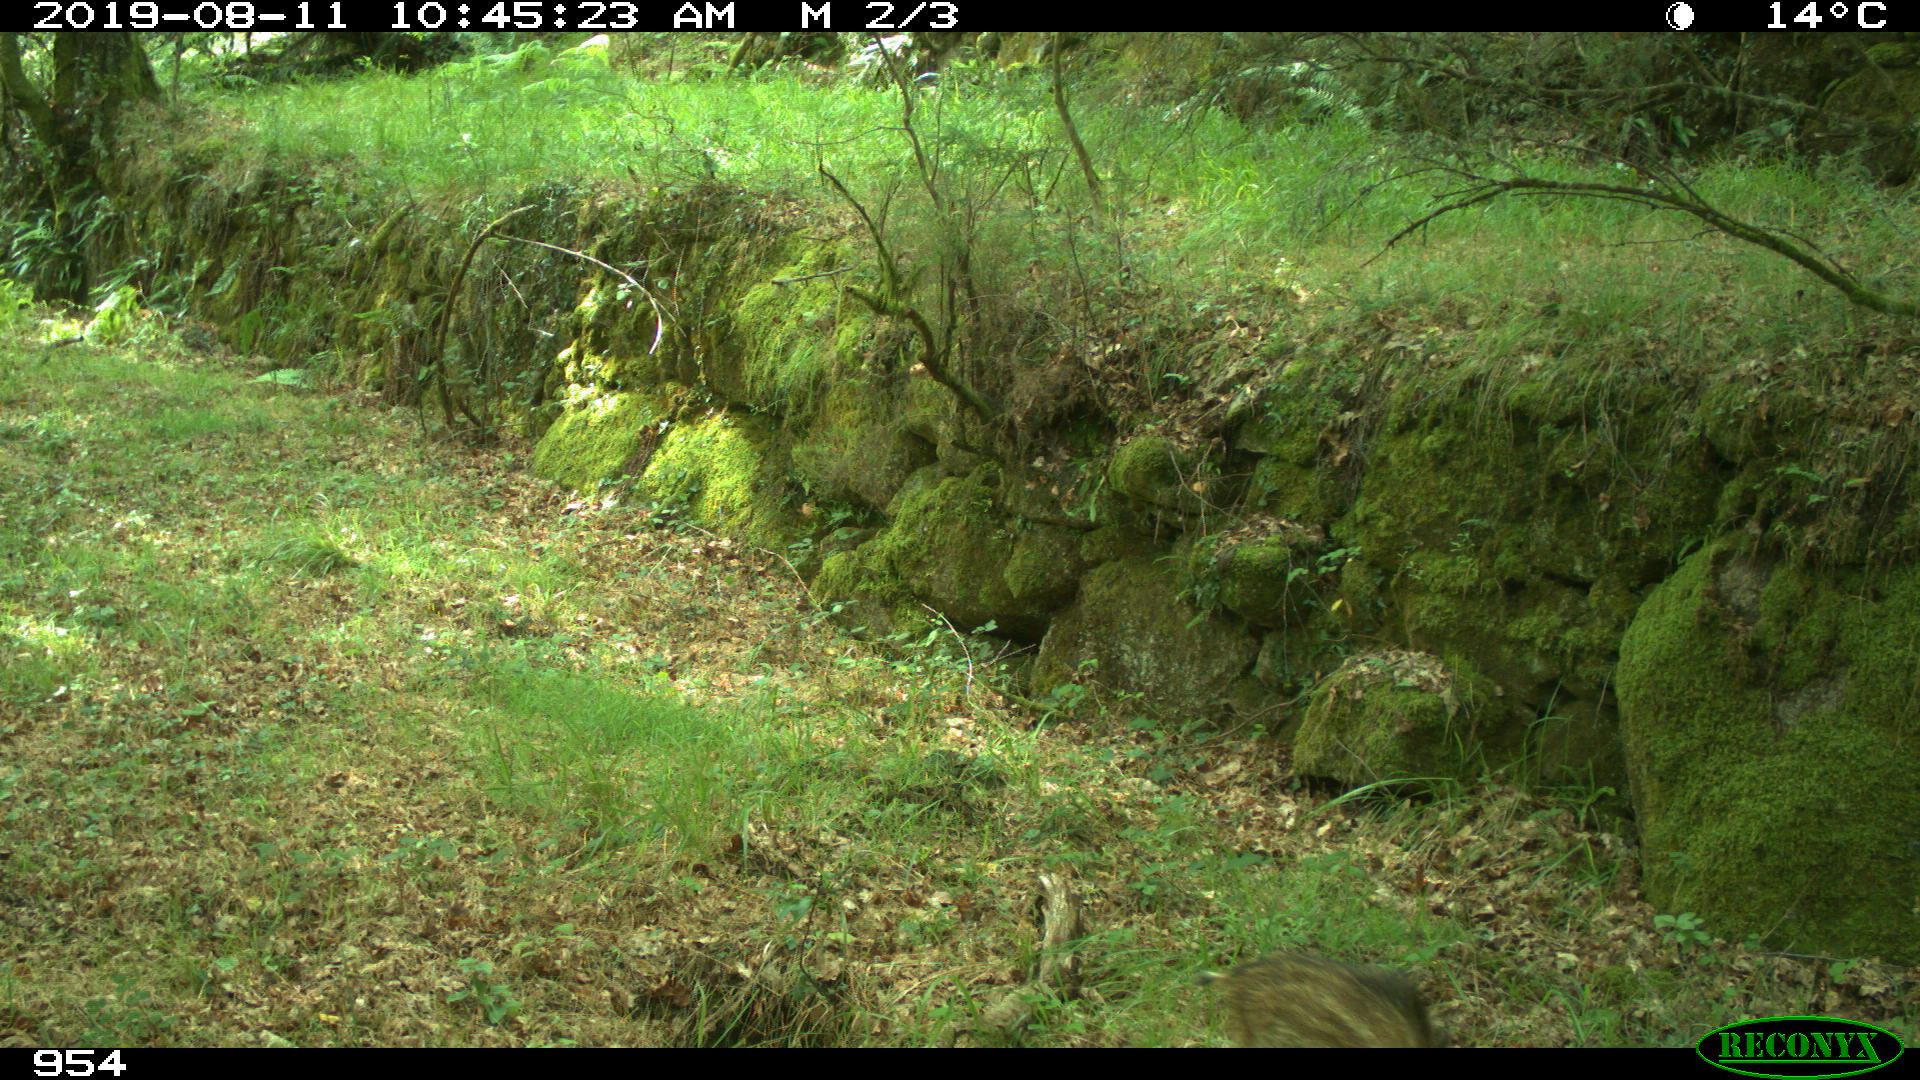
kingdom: Animalia
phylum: Chordata
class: Mammalia
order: Artiodactyla
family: Suidae
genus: Sus
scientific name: Sus scrofa
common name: Wild boar
